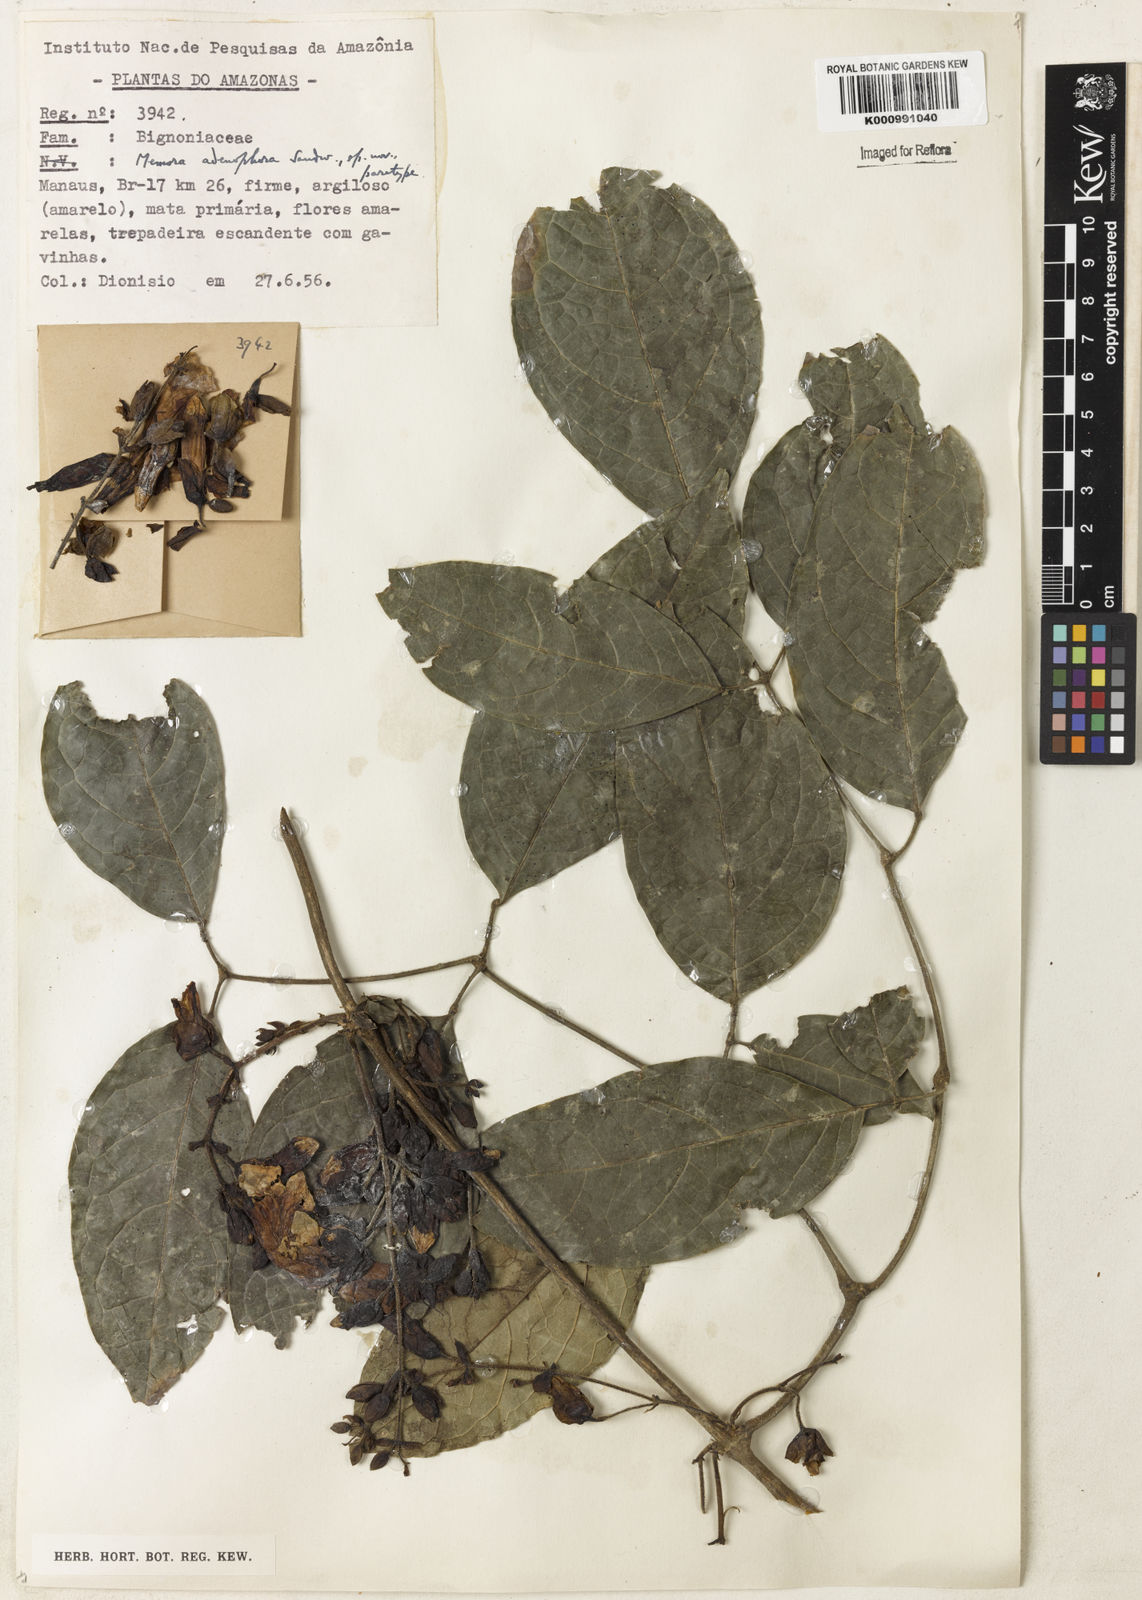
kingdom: Plantae
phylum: Tracheophyta
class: Magnoliopsida
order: Lamiales
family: Bignoniaceae
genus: Adenocalymma
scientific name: Adenocalymma adenophorum
